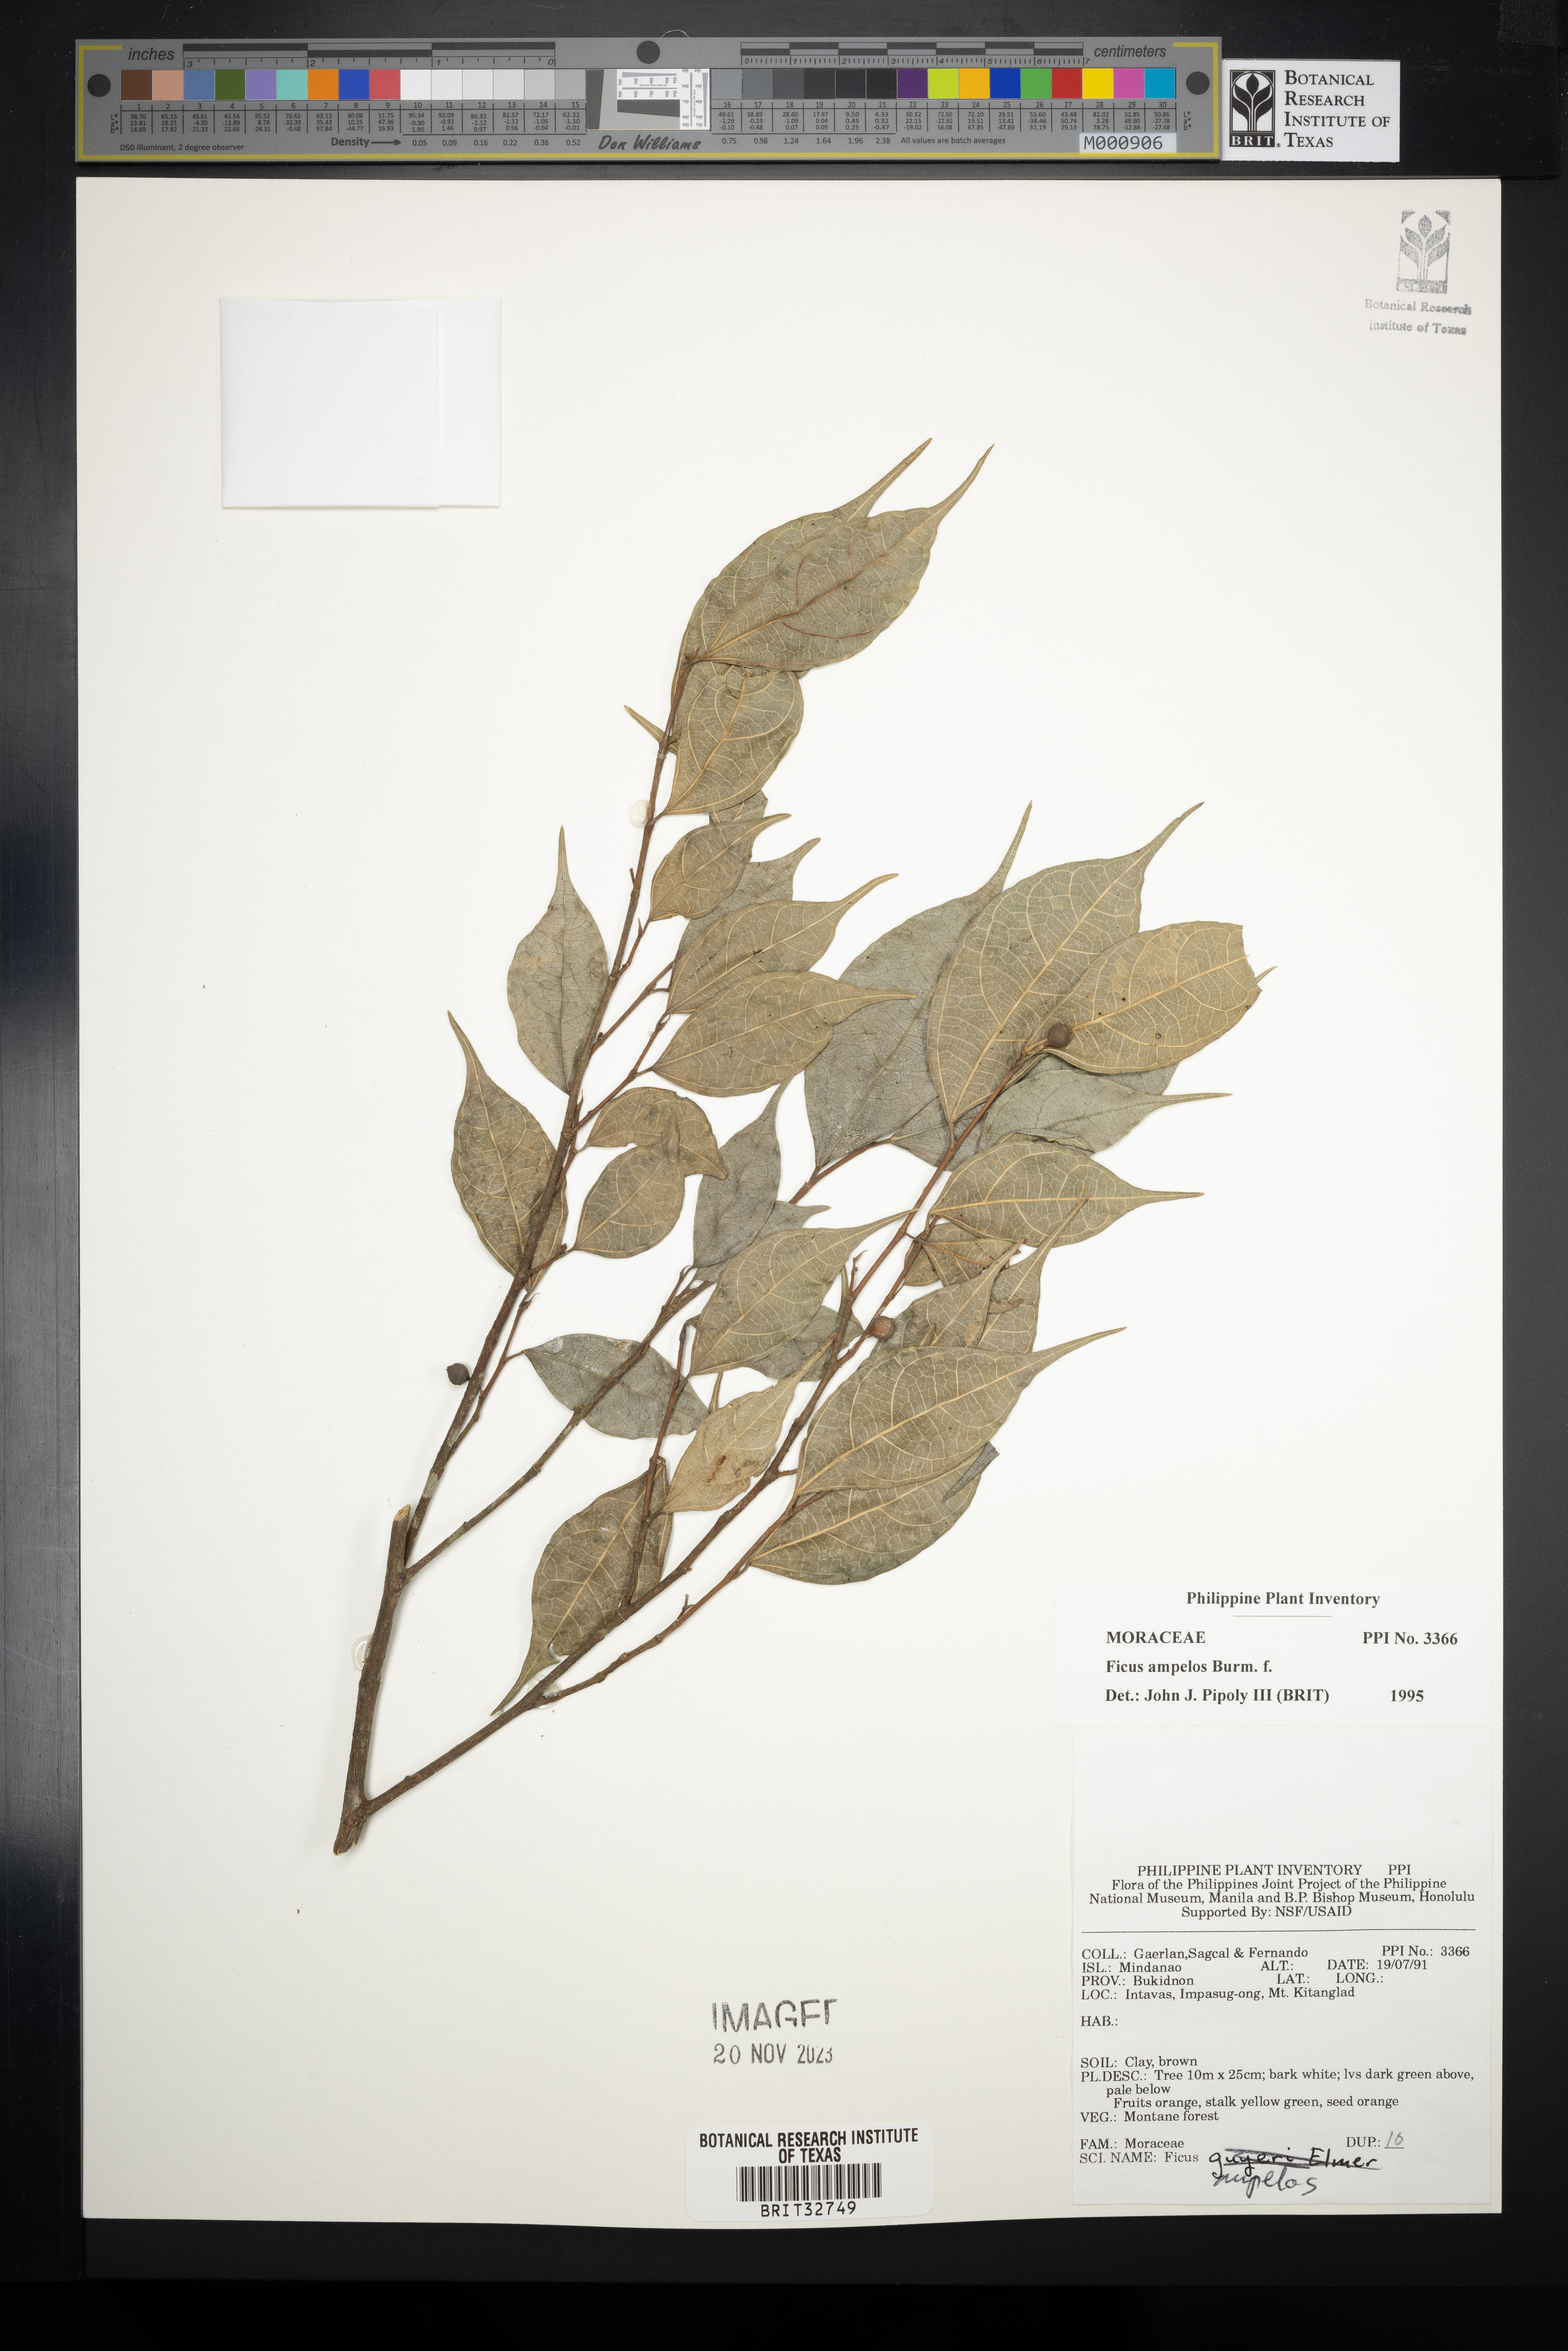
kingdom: Plantae
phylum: Tracheophyta
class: Magnoliopsida
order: Rosales
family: Moraceae
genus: Ficus
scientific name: Ficus ampelos
